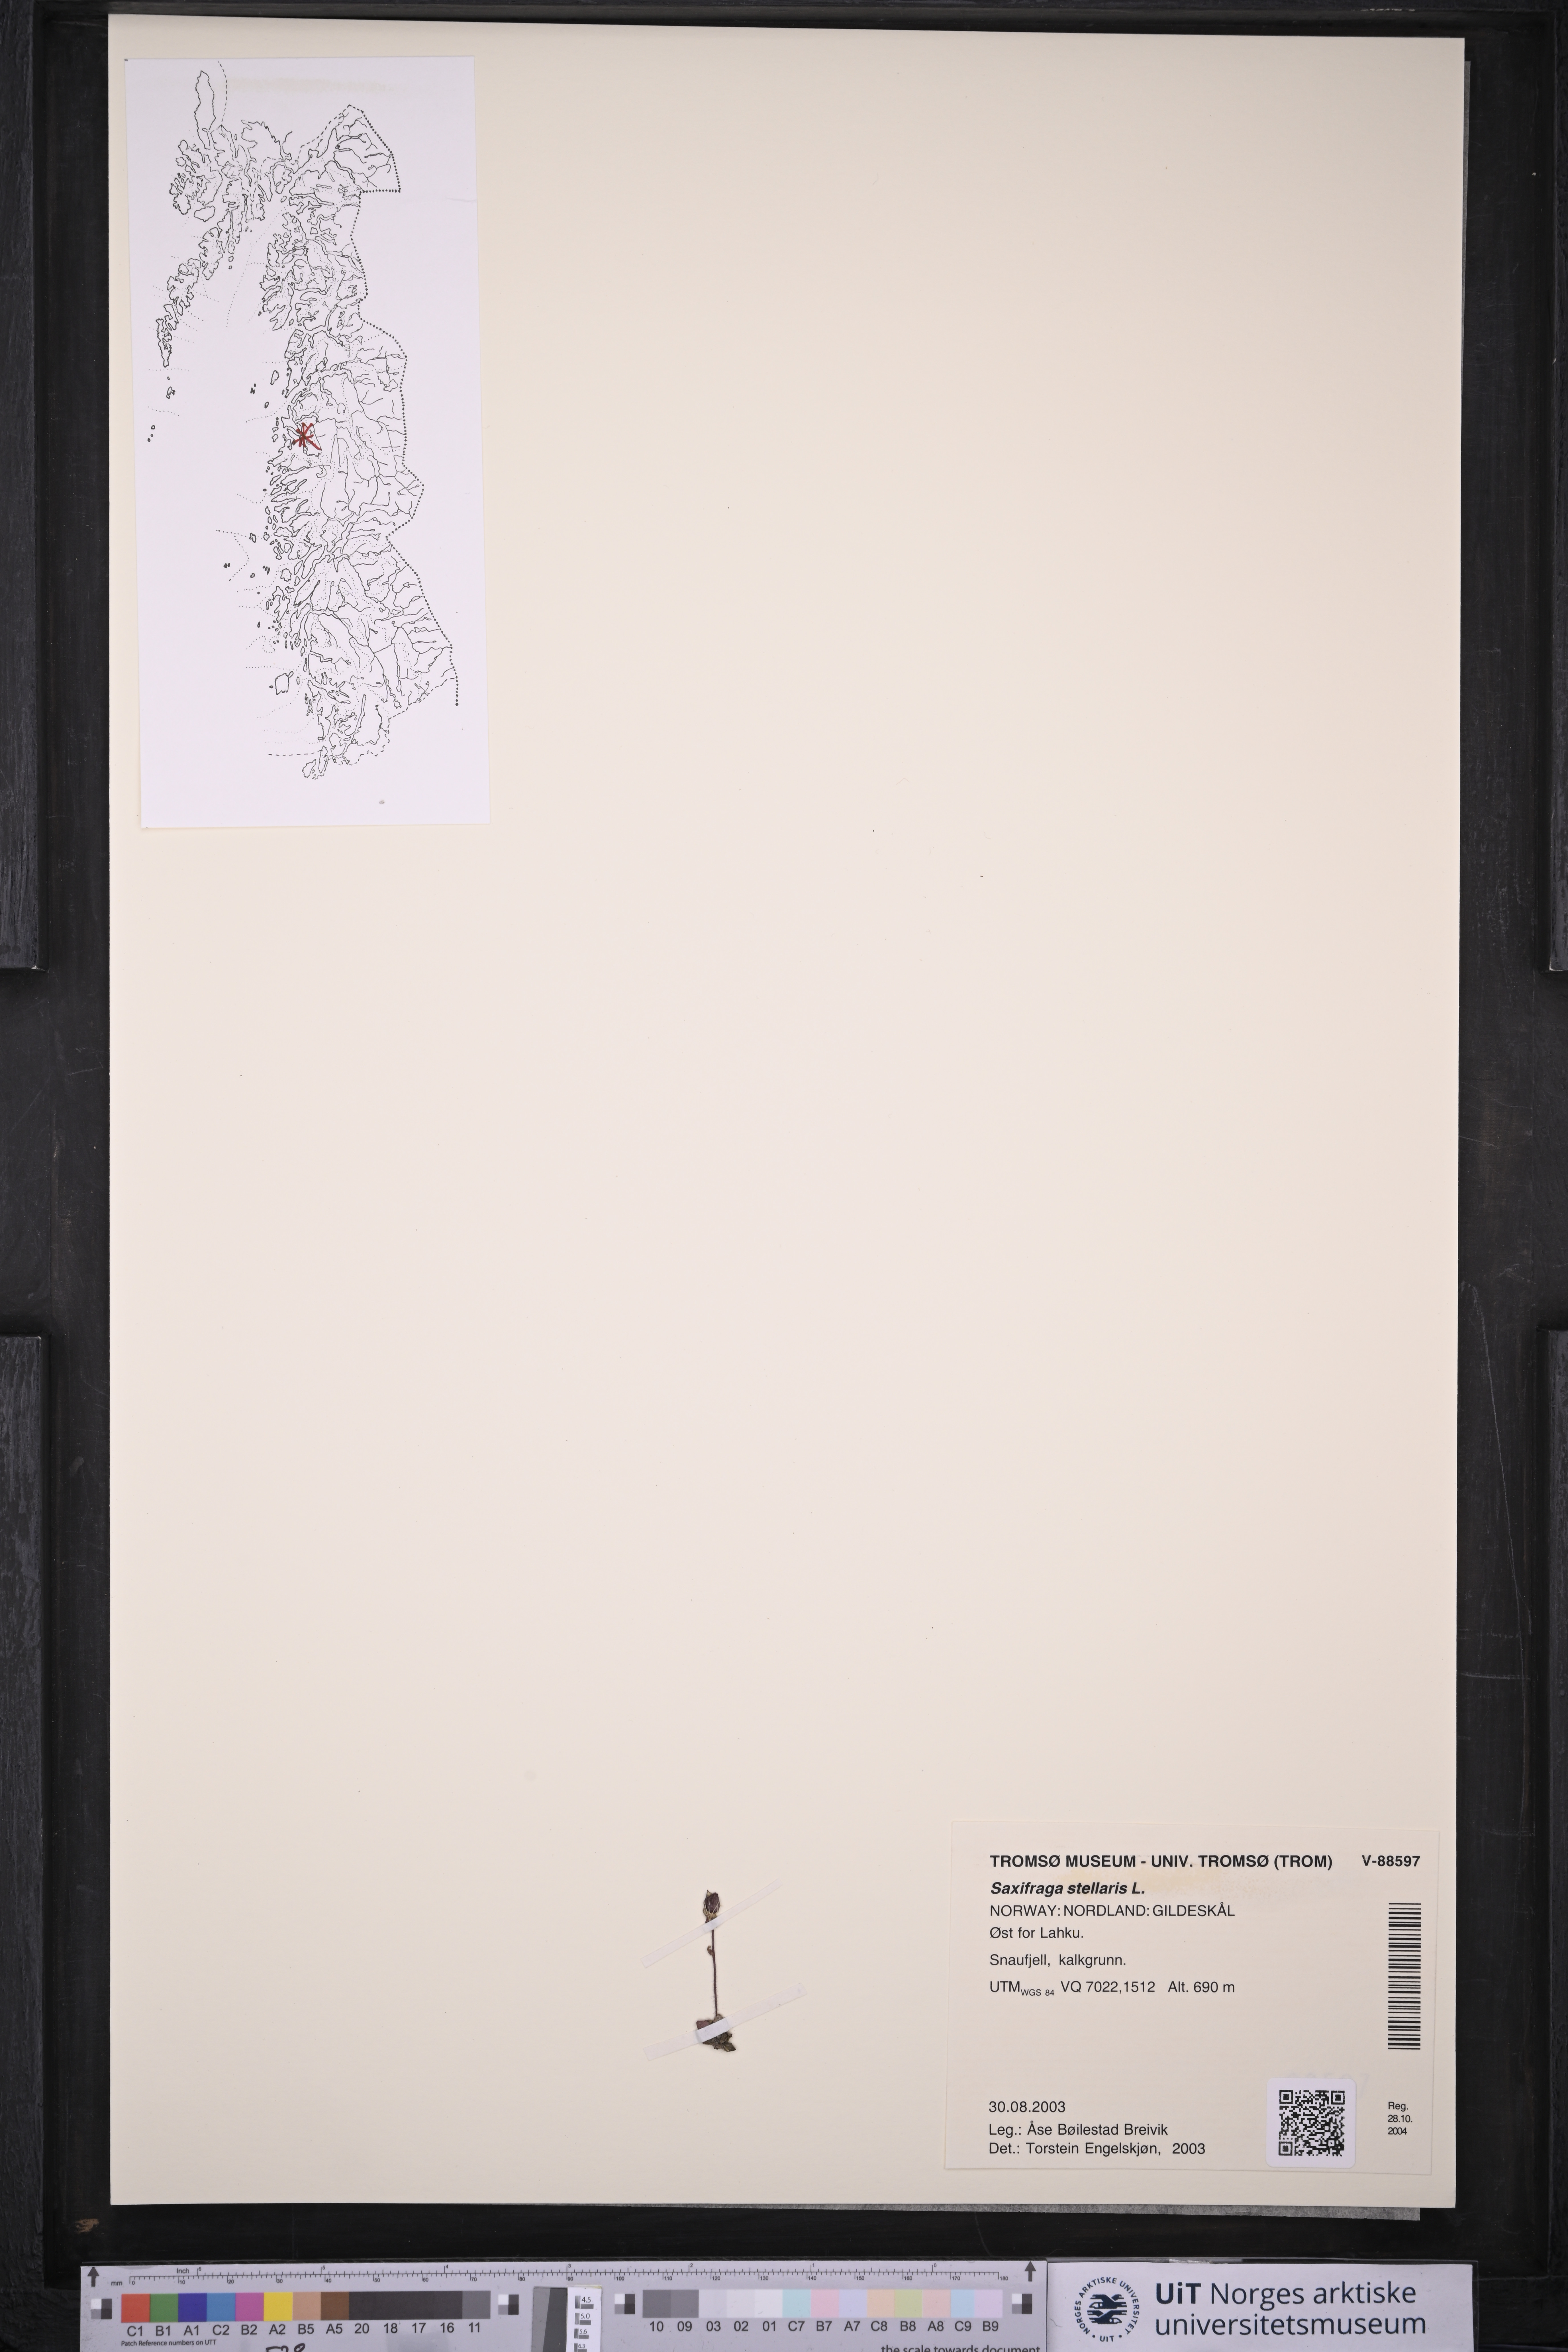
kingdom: Plantae
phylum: Tracheophyta
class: Magnoliopsida
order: Saxifragales
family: Saxifragaceae
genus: Micranthes
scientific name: Micranthes stellaris
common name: Starry saxifrage
